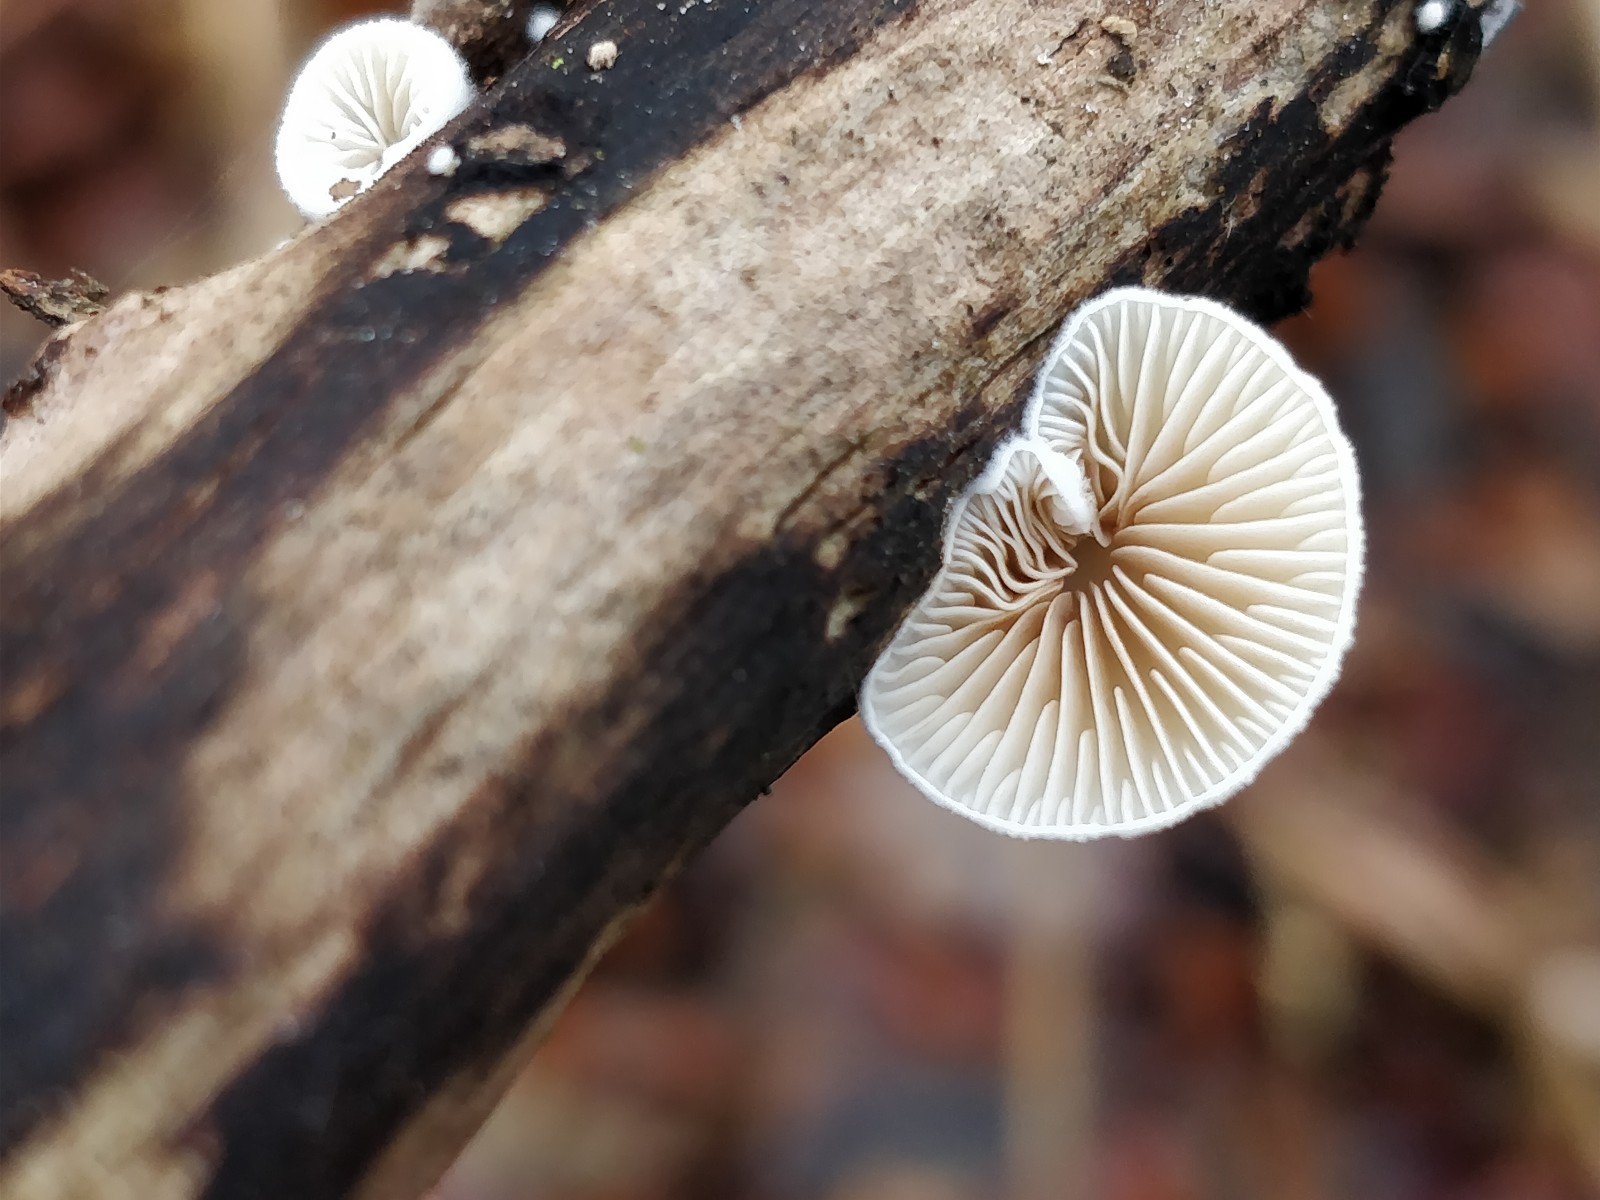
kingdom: Fungi
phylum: Basidiomycota
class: Agaricomycetes
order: Agaricales
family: Crepidotaceae
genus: Crepidotus
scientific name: Crepidotus
